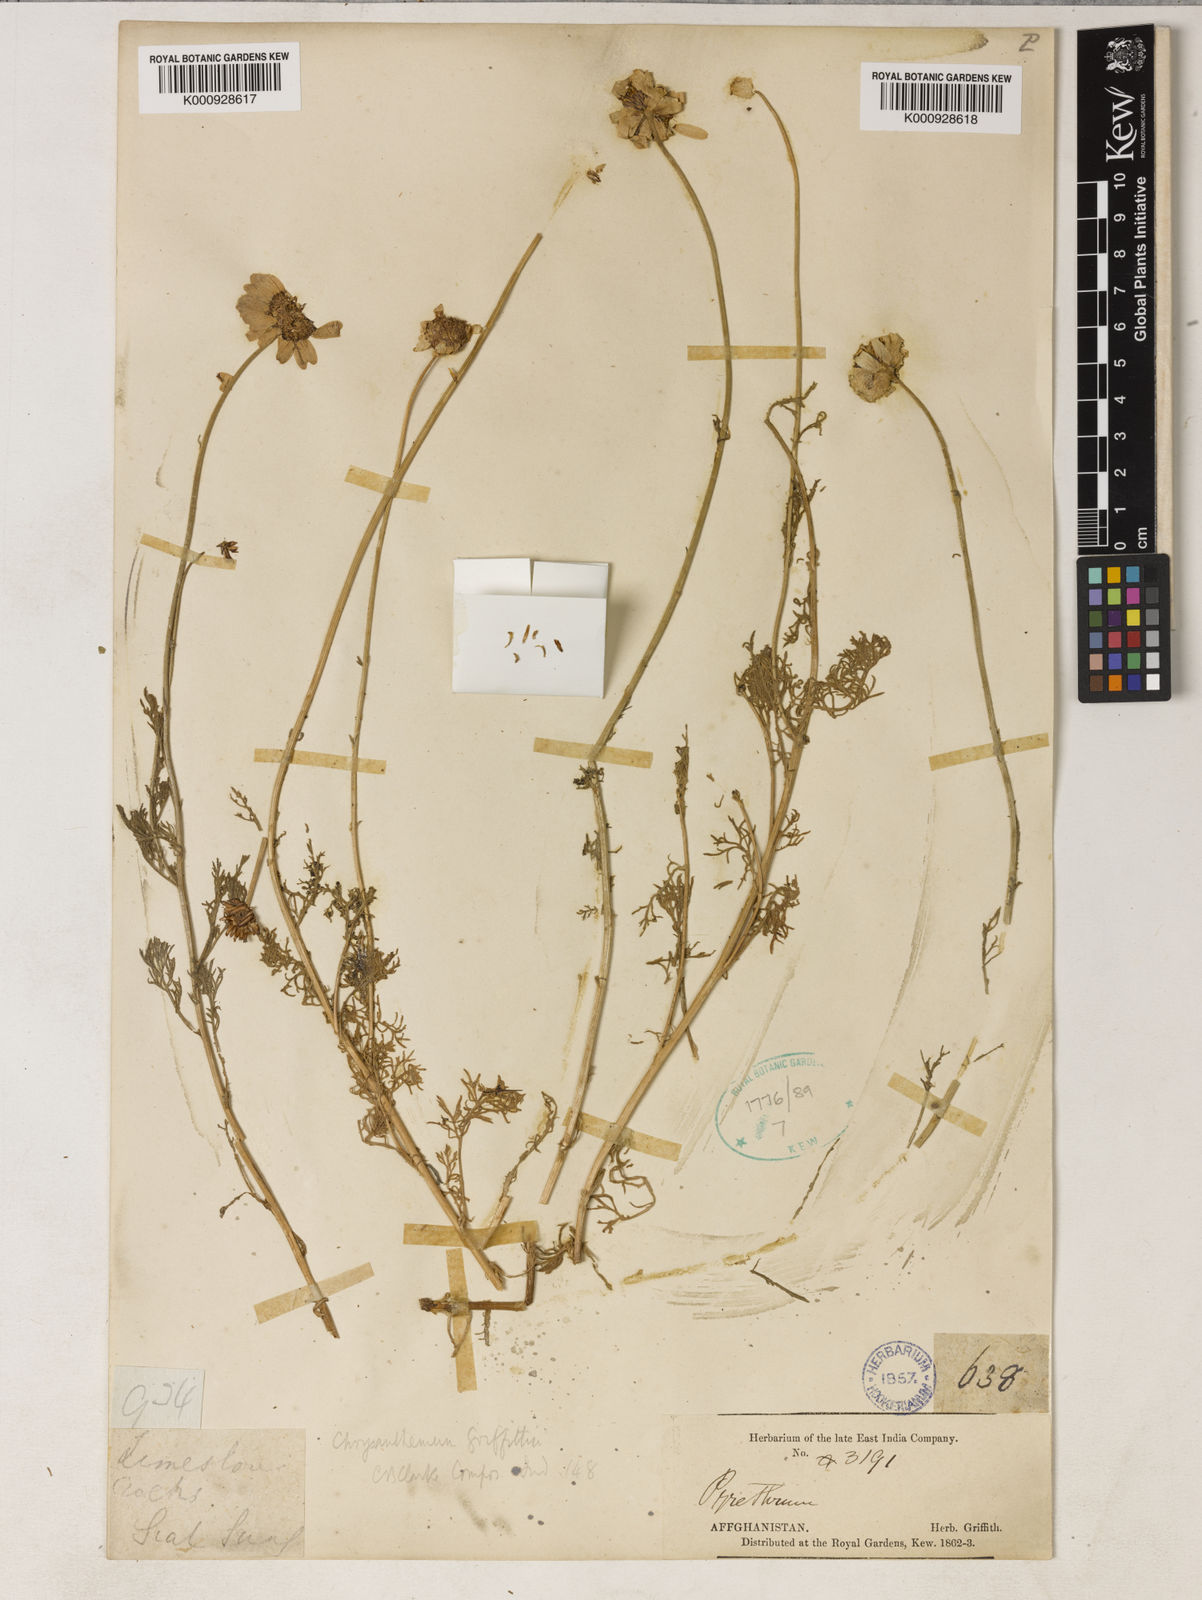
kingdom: Plantae
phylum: Tracheophyta
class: Magnoliopsida
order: Asterales
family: Asteraceae
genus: Tanacetum
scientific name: Tanacetum griffithii
